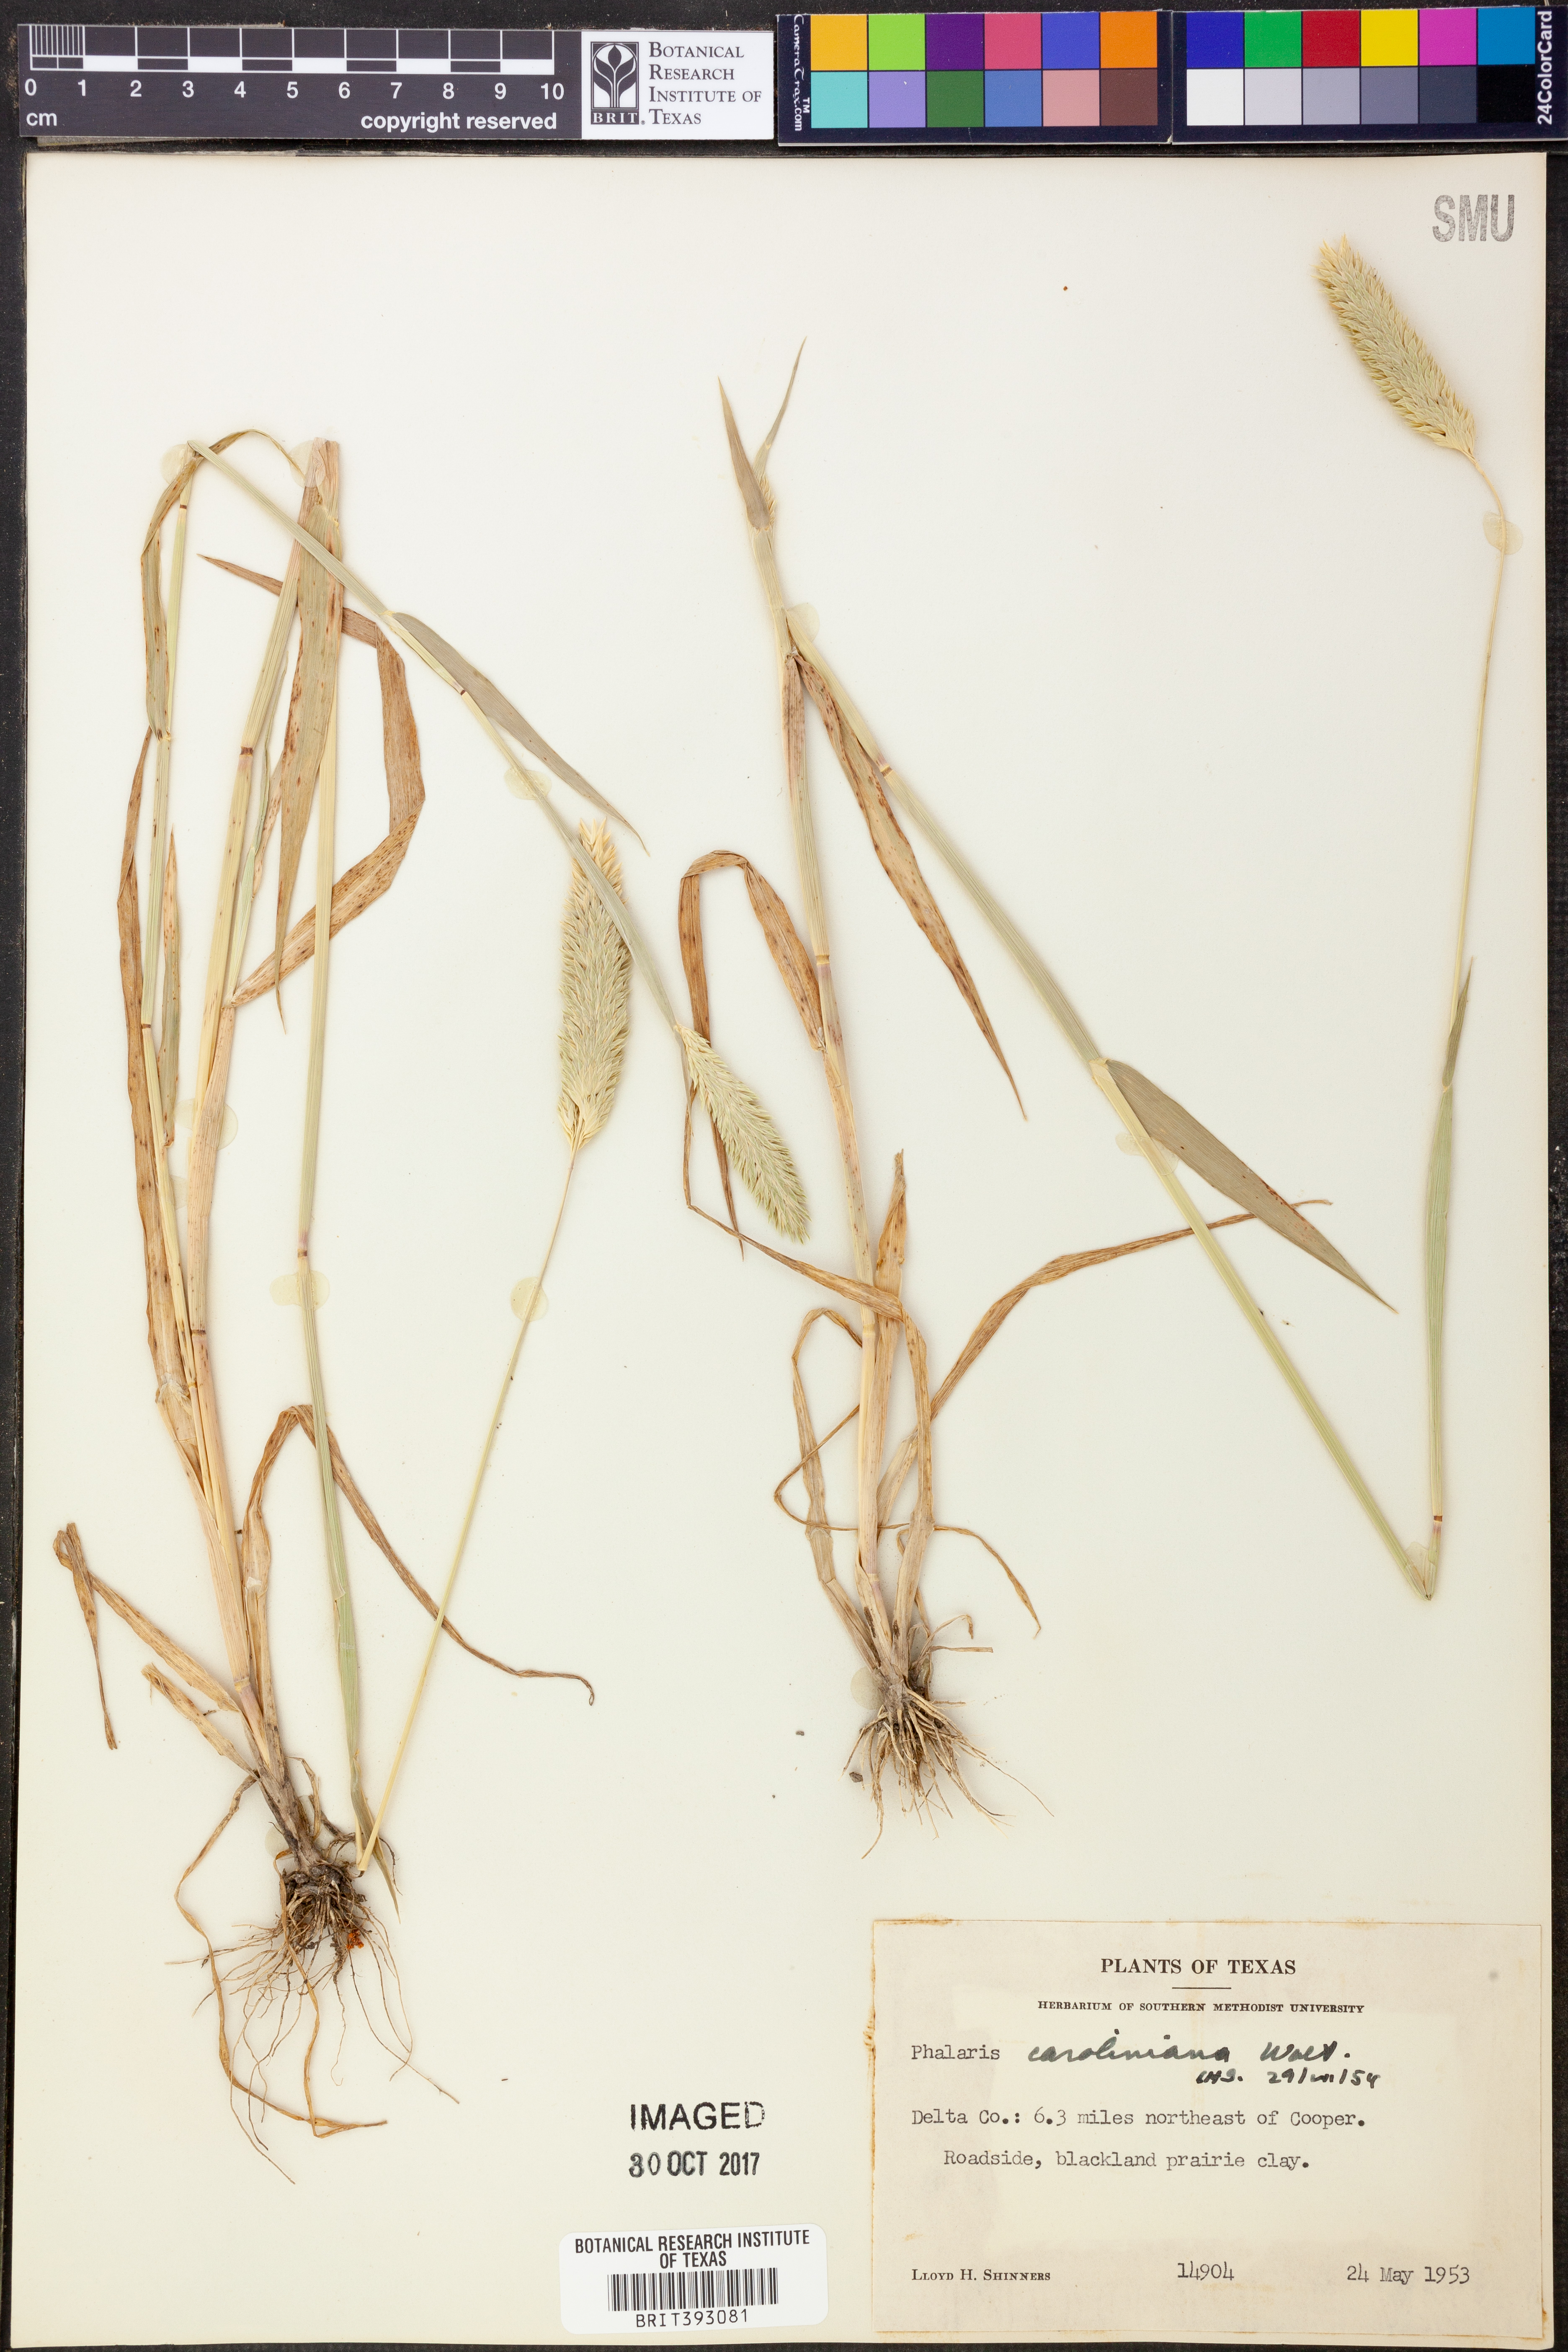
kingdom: Plantae
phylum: Tracheophyta
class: Liliopsida
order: Poales
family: Poaceae
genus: Phalaris
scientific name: Phalaris caroliniana
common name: May grass
